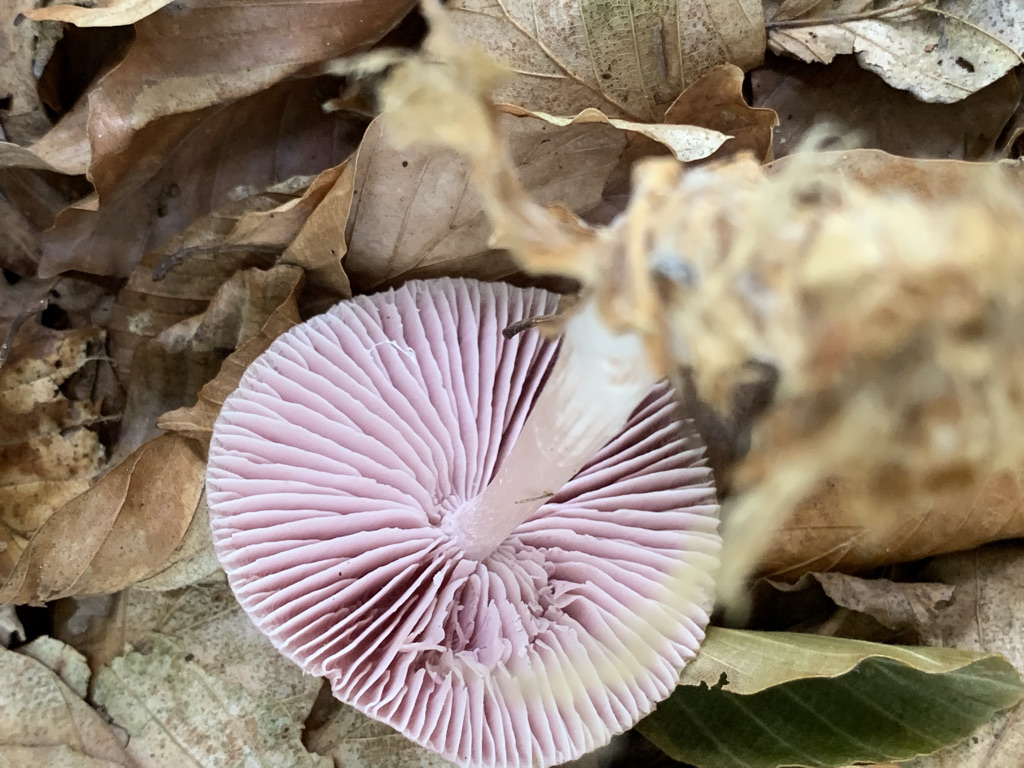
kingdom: Fungi
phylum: Basidiomycota
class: Agaricomycetes
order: Agaricales
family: Mycenaceae
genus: Mycena
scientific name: Mycena rosea
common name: rosa huesvamp
